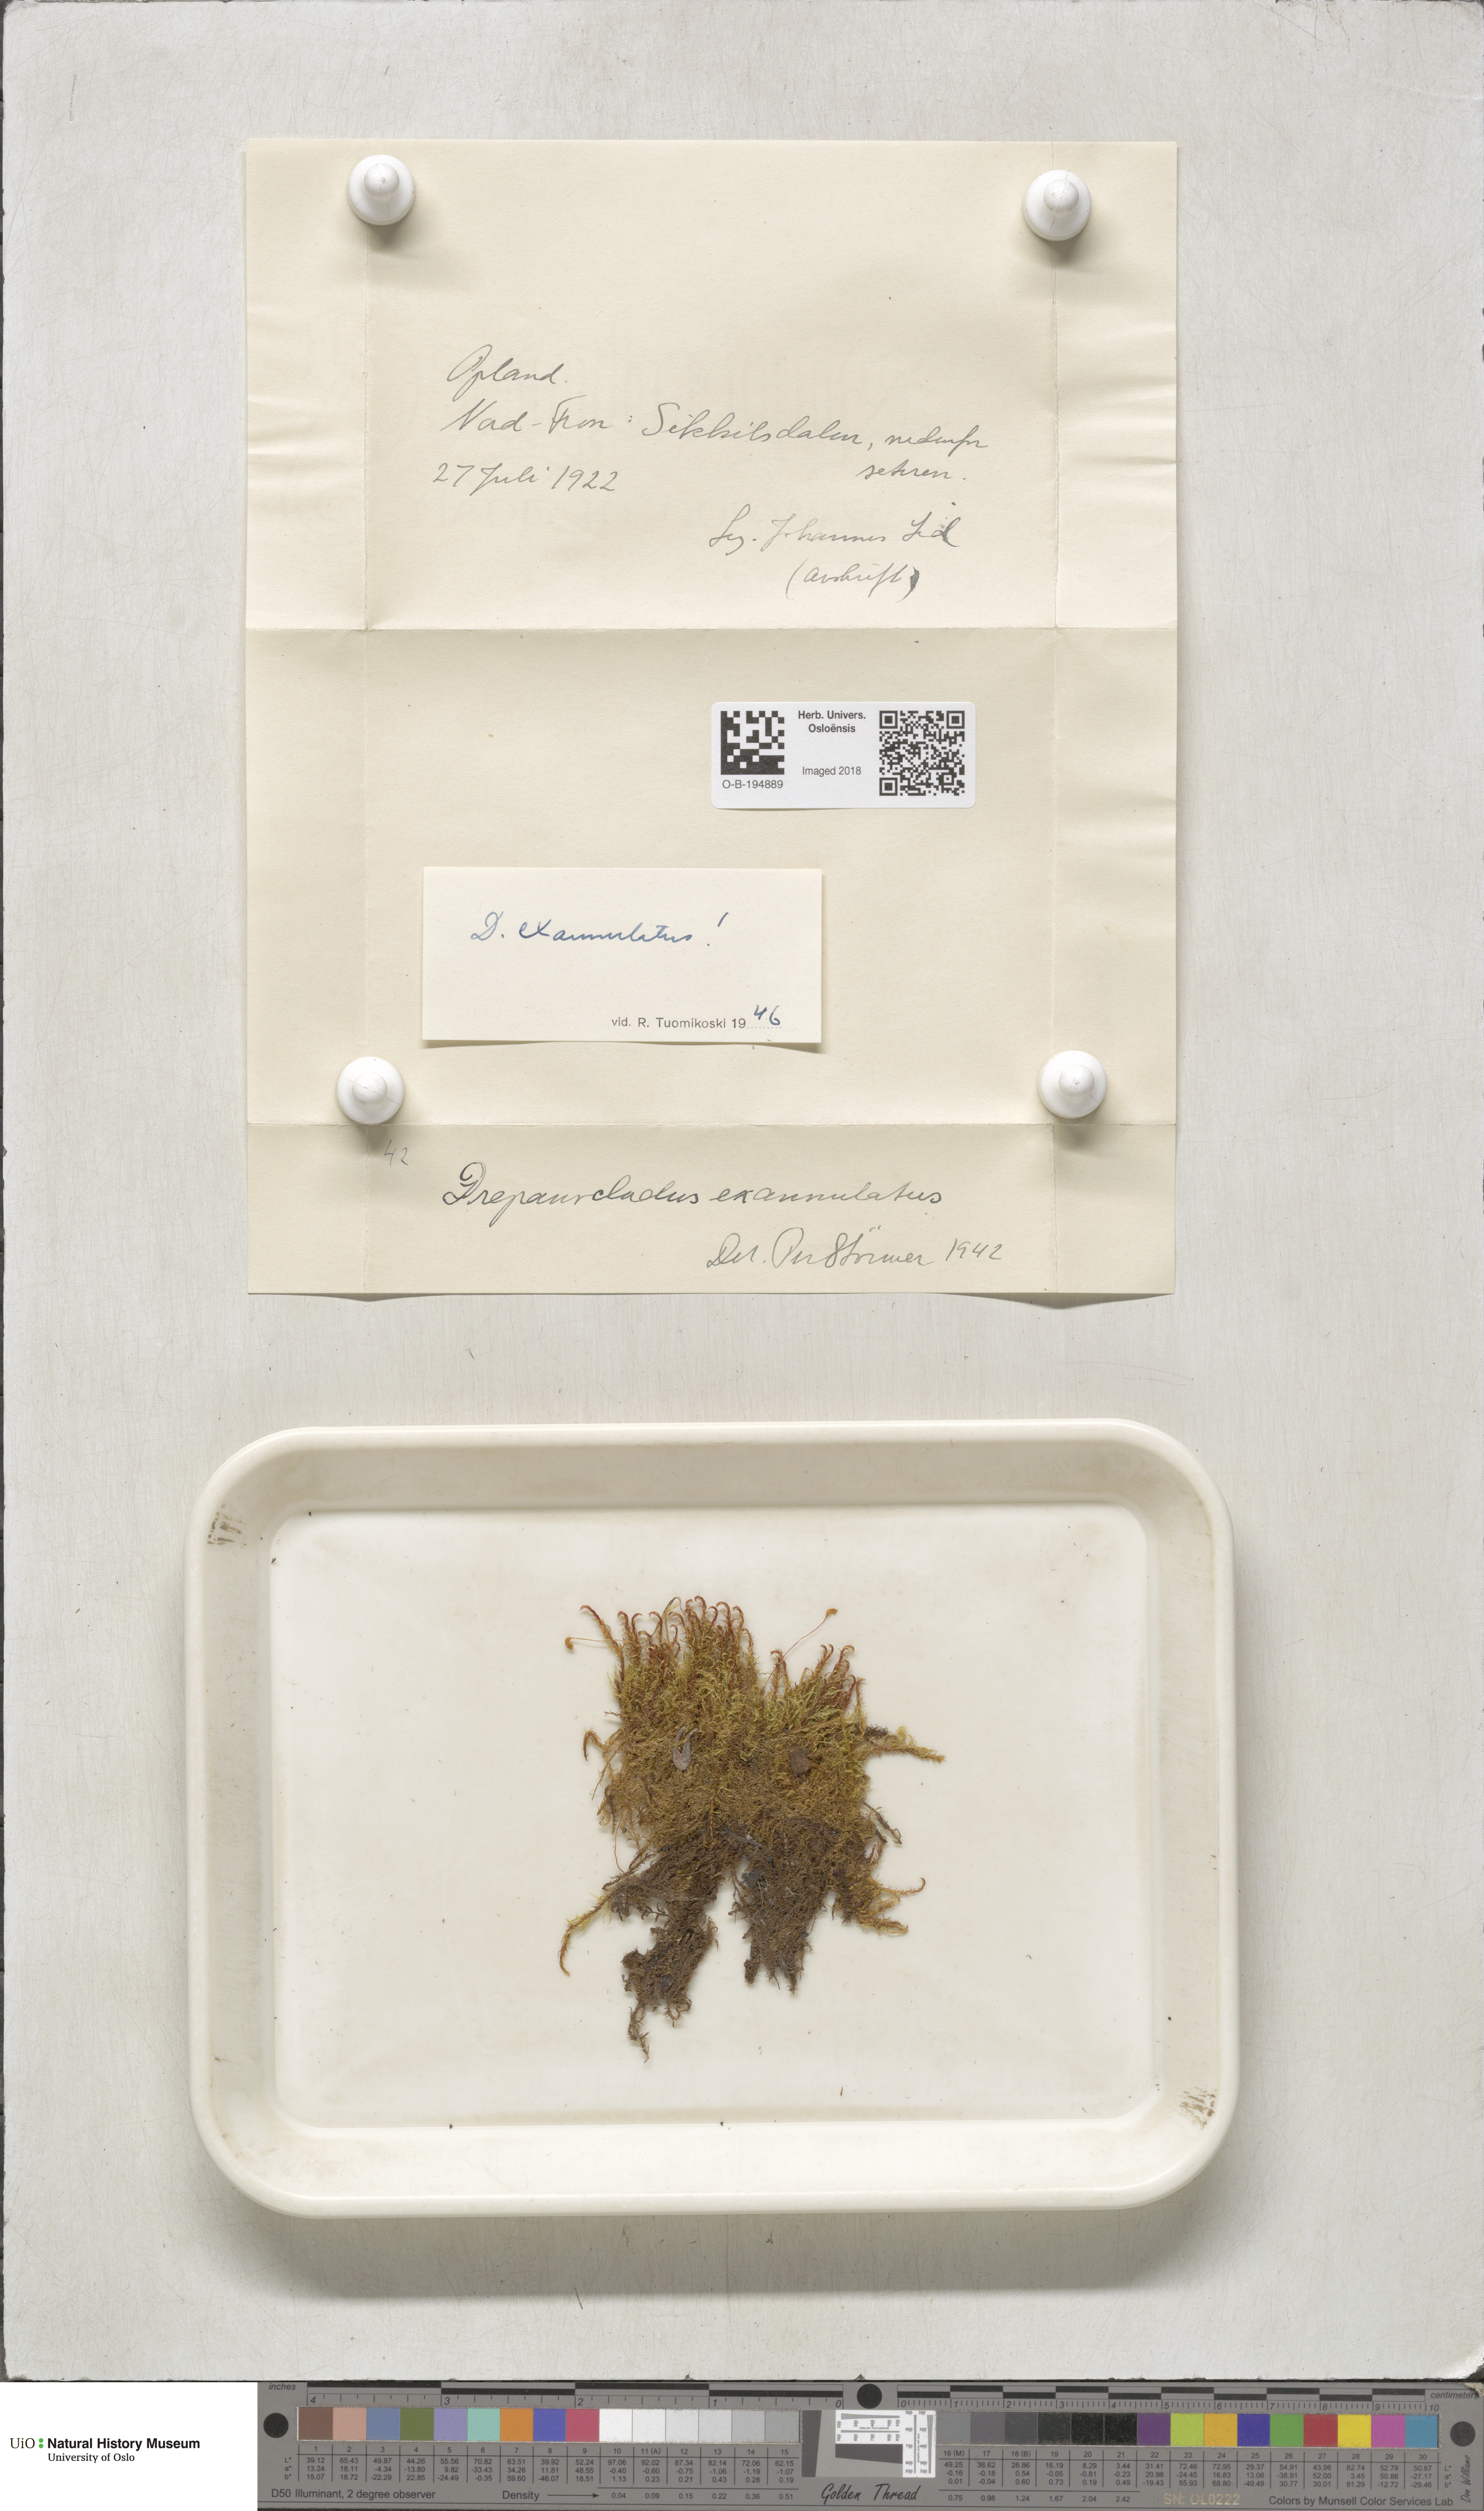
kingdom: Plantae
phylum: Bryophyta
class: Bryopsida
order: Hypnales
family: Calliergonaceae
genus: Sarmentypnum
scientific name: Sarmentypnum exannulatum
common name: Ringless spoon moss
